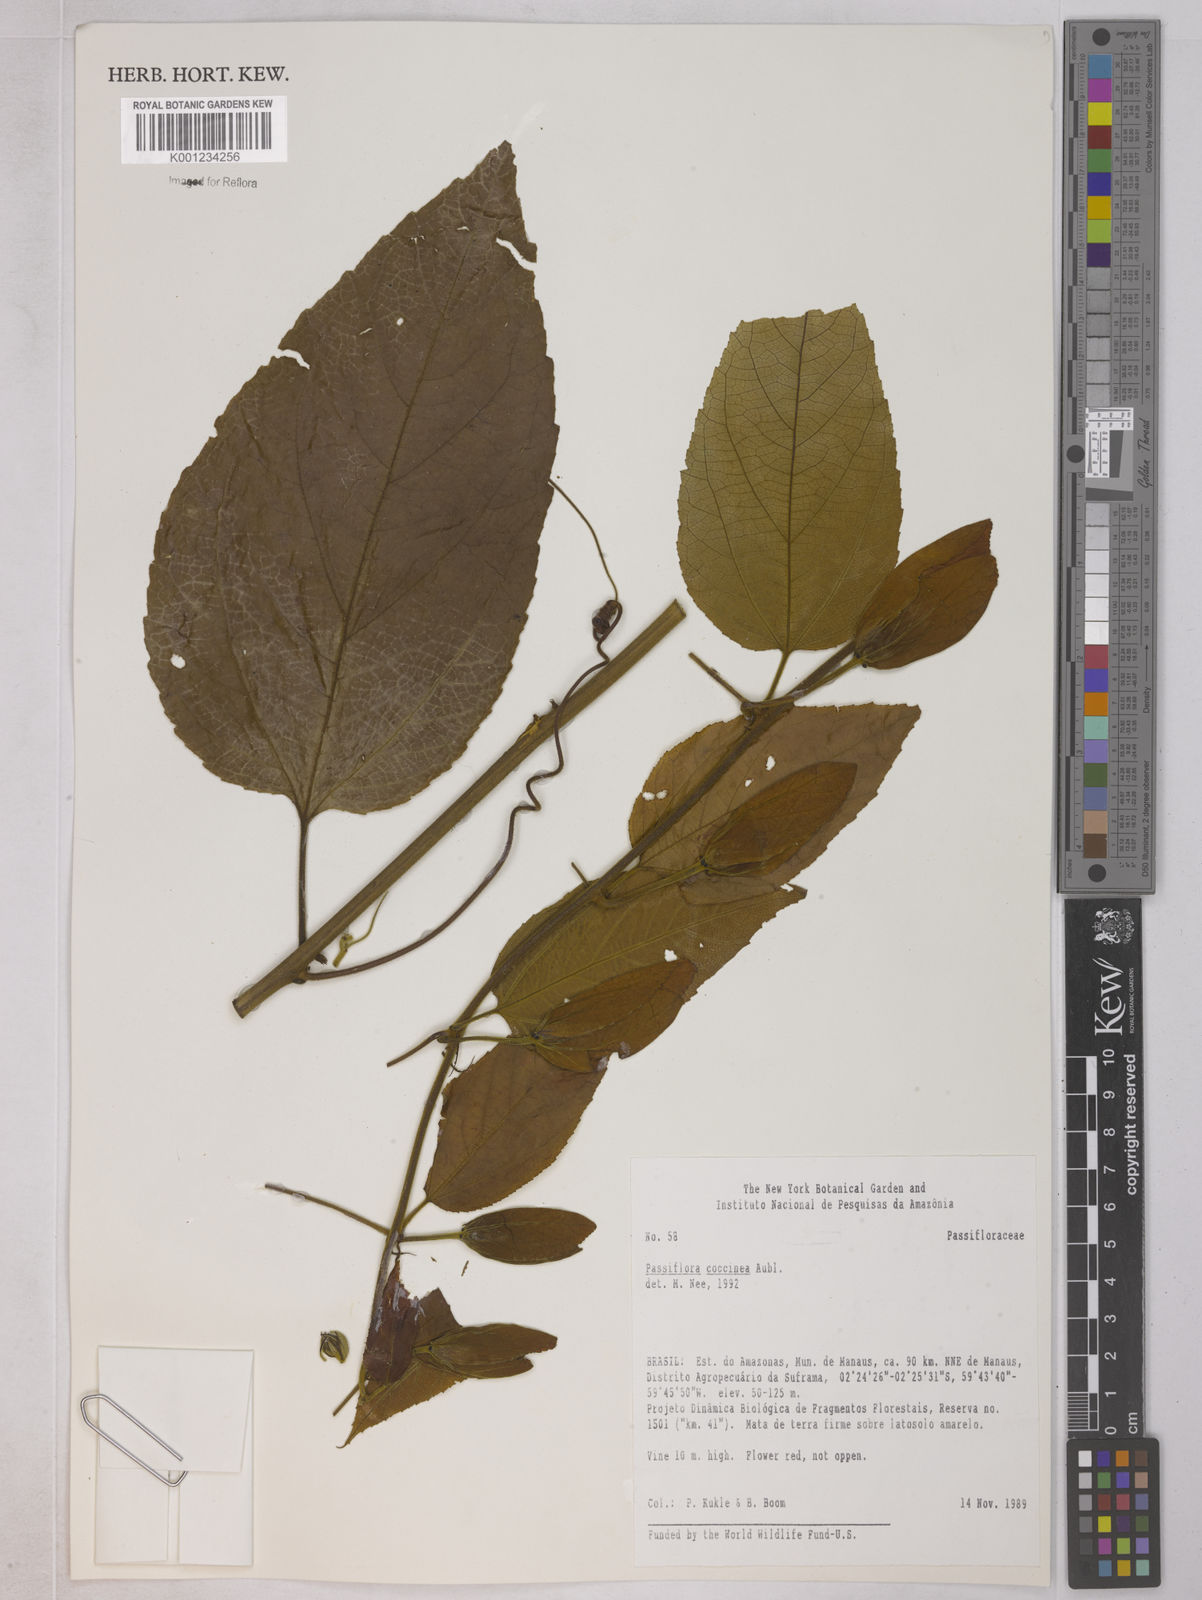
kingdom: Plantae
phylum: Tracheophyta
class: Magnoliopsida
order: Malpighiales
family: Passifloraceae
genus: Passiflora
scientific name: Passiflora coccinea
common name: Scarlet passionflower
